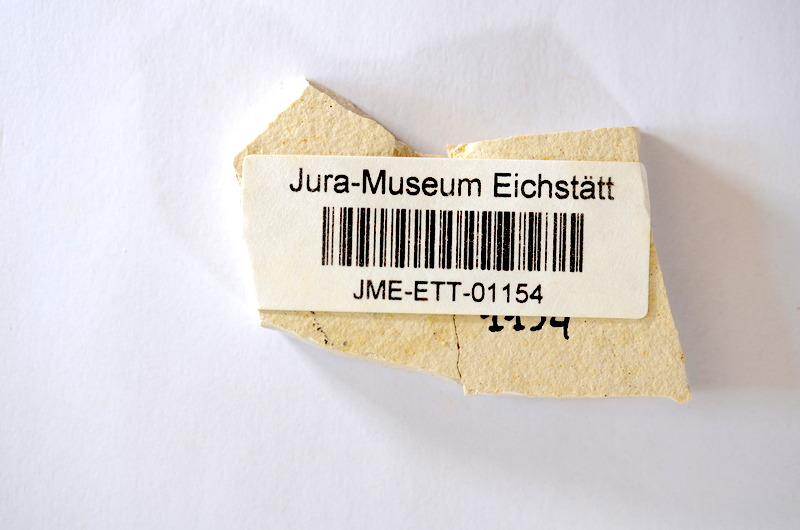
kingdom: Animalia
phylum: Chordata
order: Salmoniformes
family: Orthogonikleithridae
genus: Orthogonikleithrus
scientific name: Orthogonikleithrus hoelli
